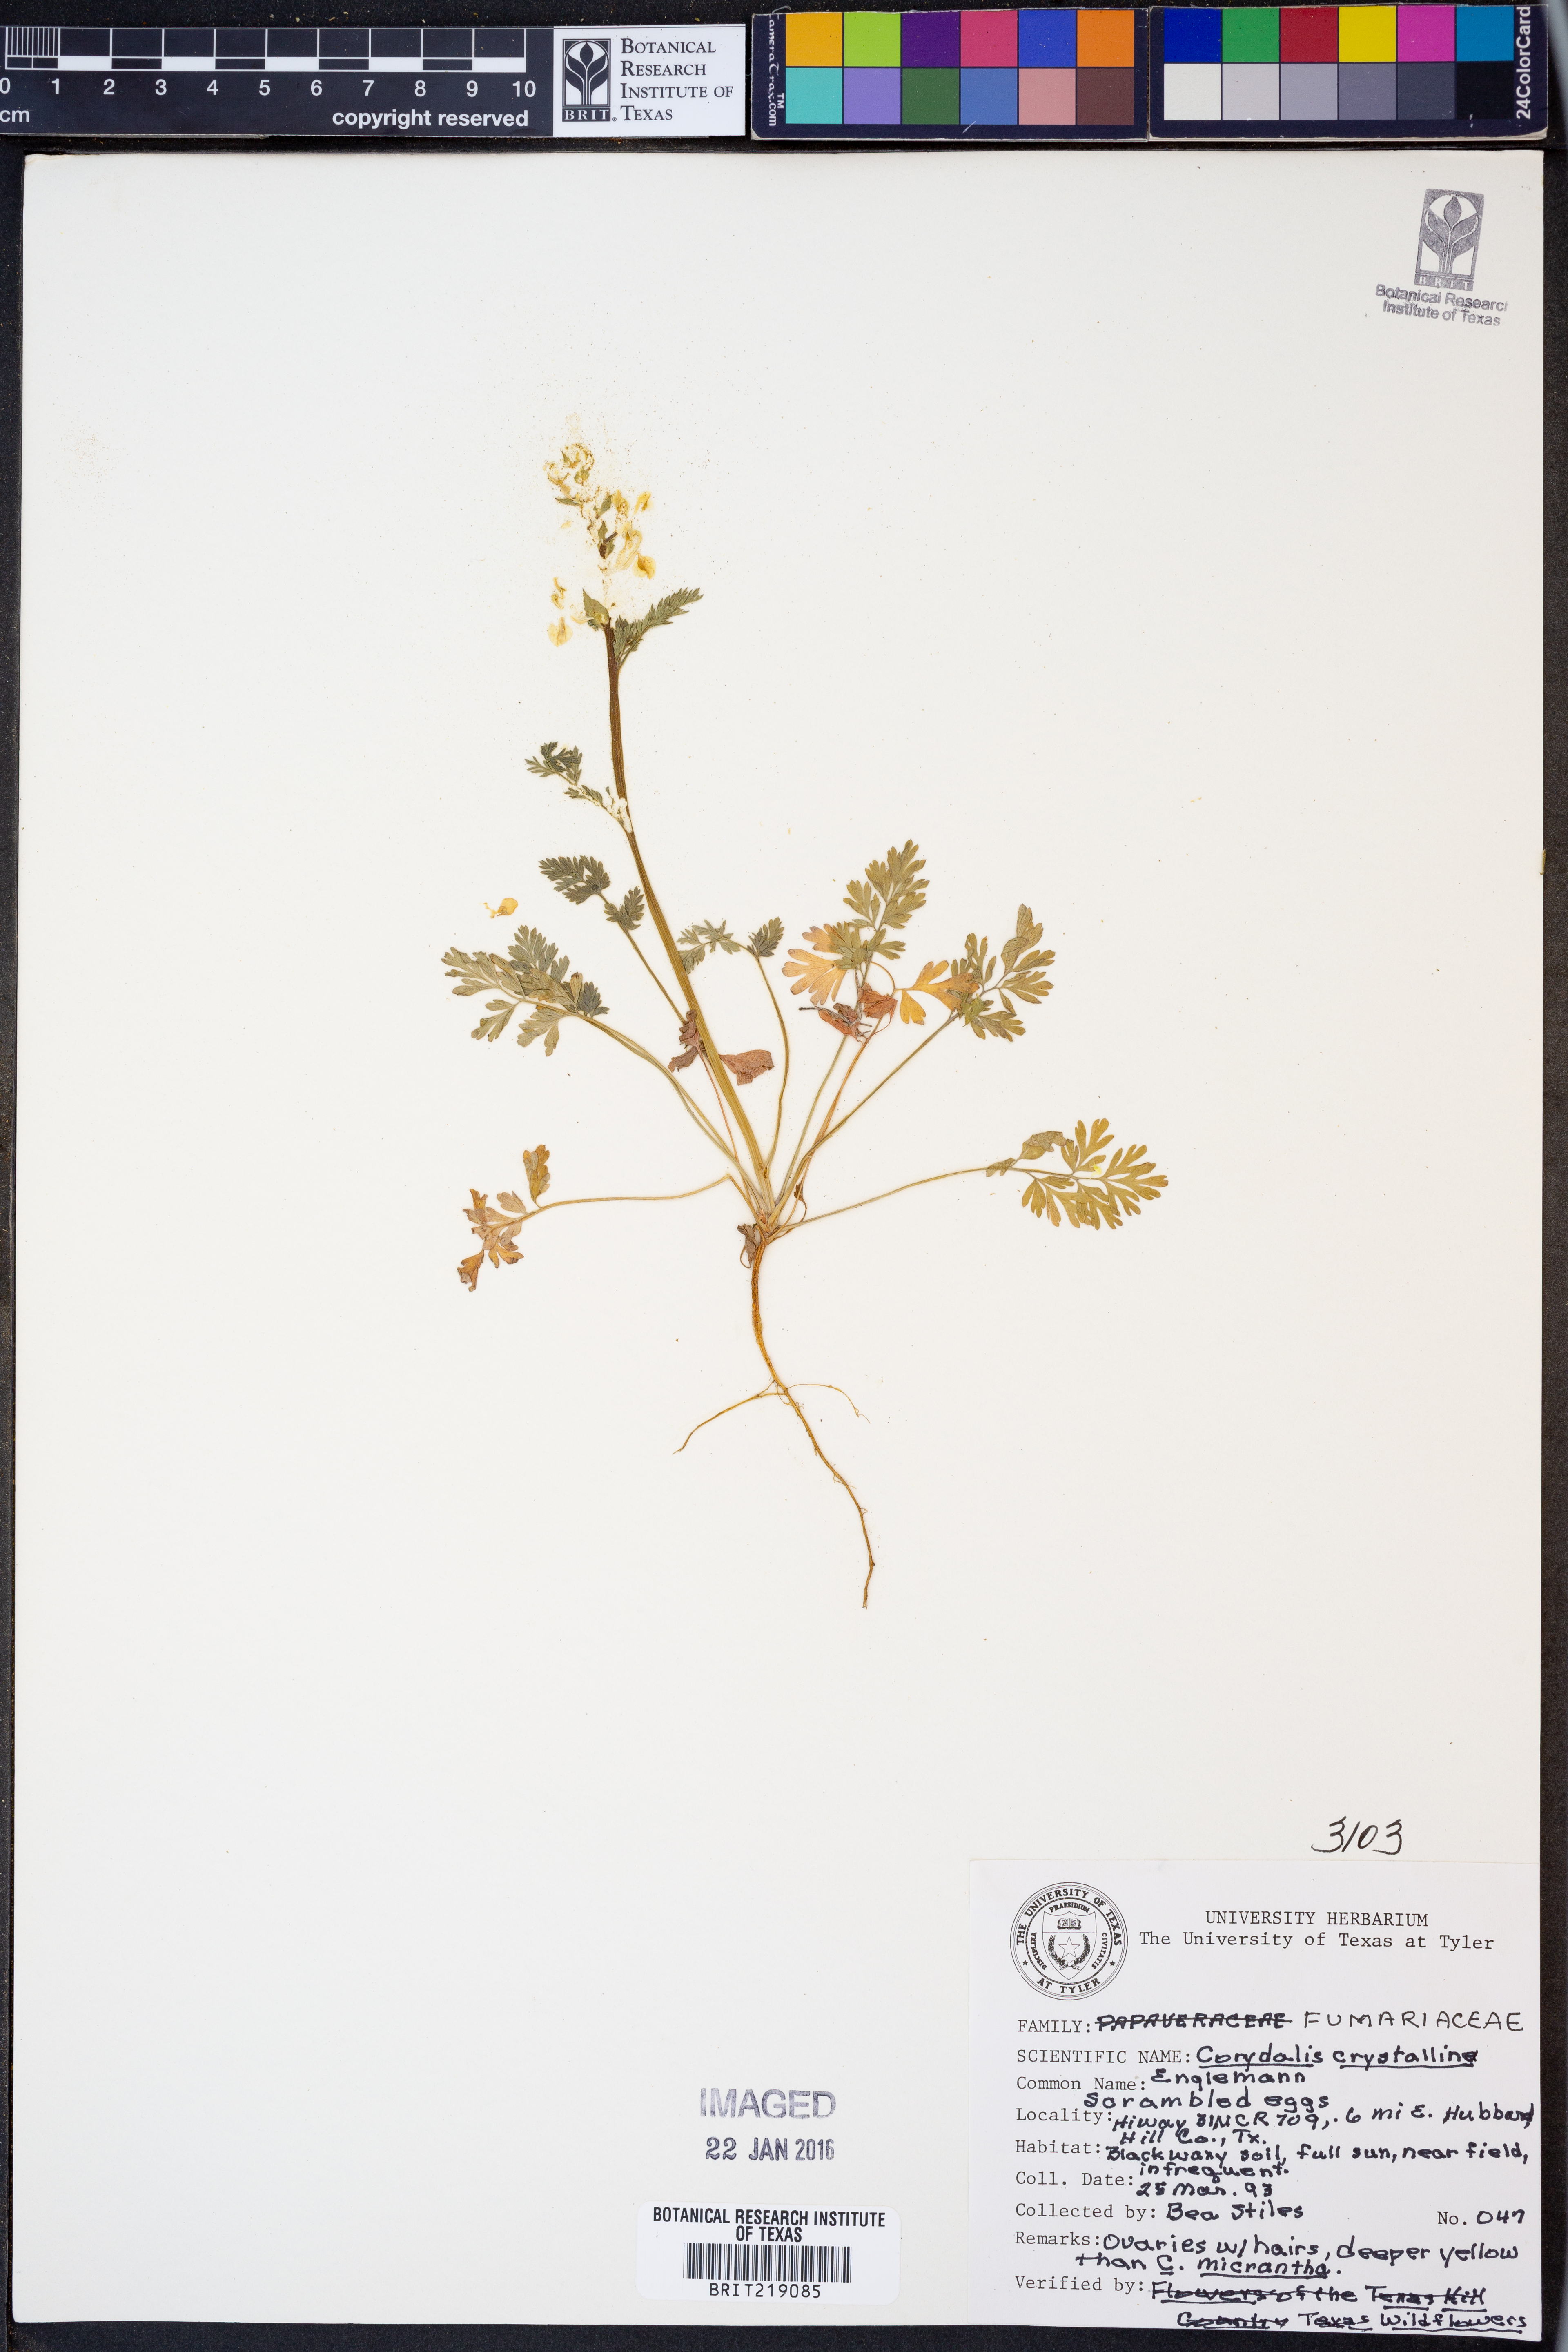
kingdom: Plantae
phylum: Tracheophyta
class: Magnoliopsida
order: Ranunculales
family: Papaveraceae
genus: Corydalis
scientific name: Corydalis crystallina
